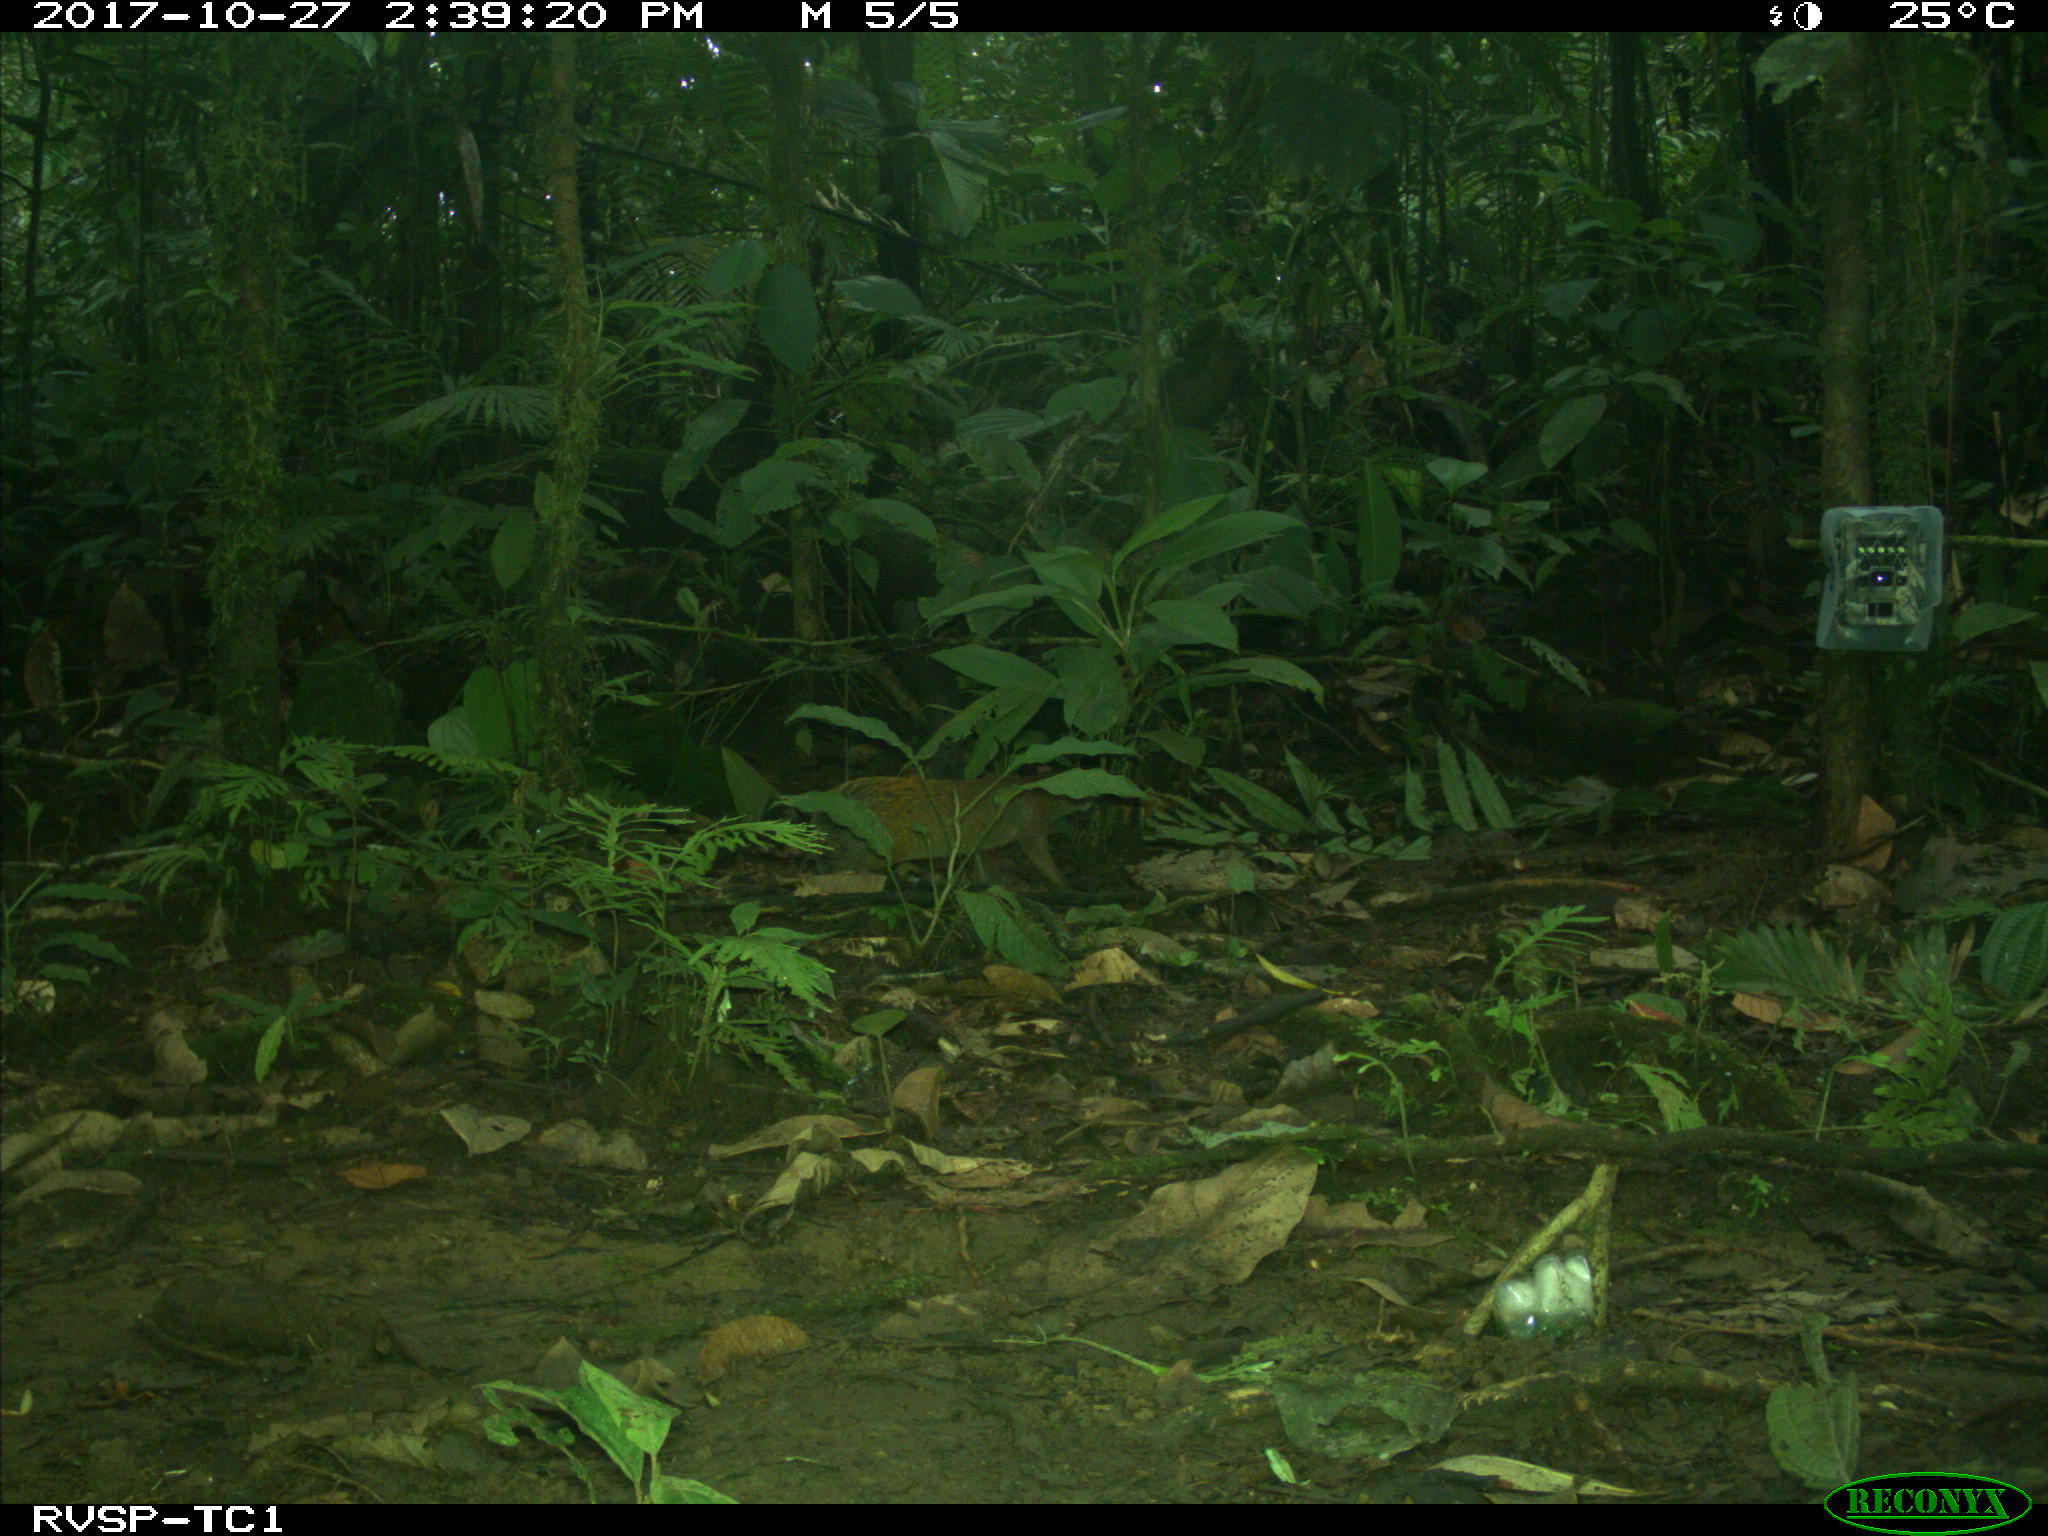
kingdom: Animalia
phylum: Chordata
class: Mammalia
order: Rodentia
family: Dasyproctidae
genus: Dasyprocta
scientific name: Dasyprocta punctata
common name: Central american agouti
